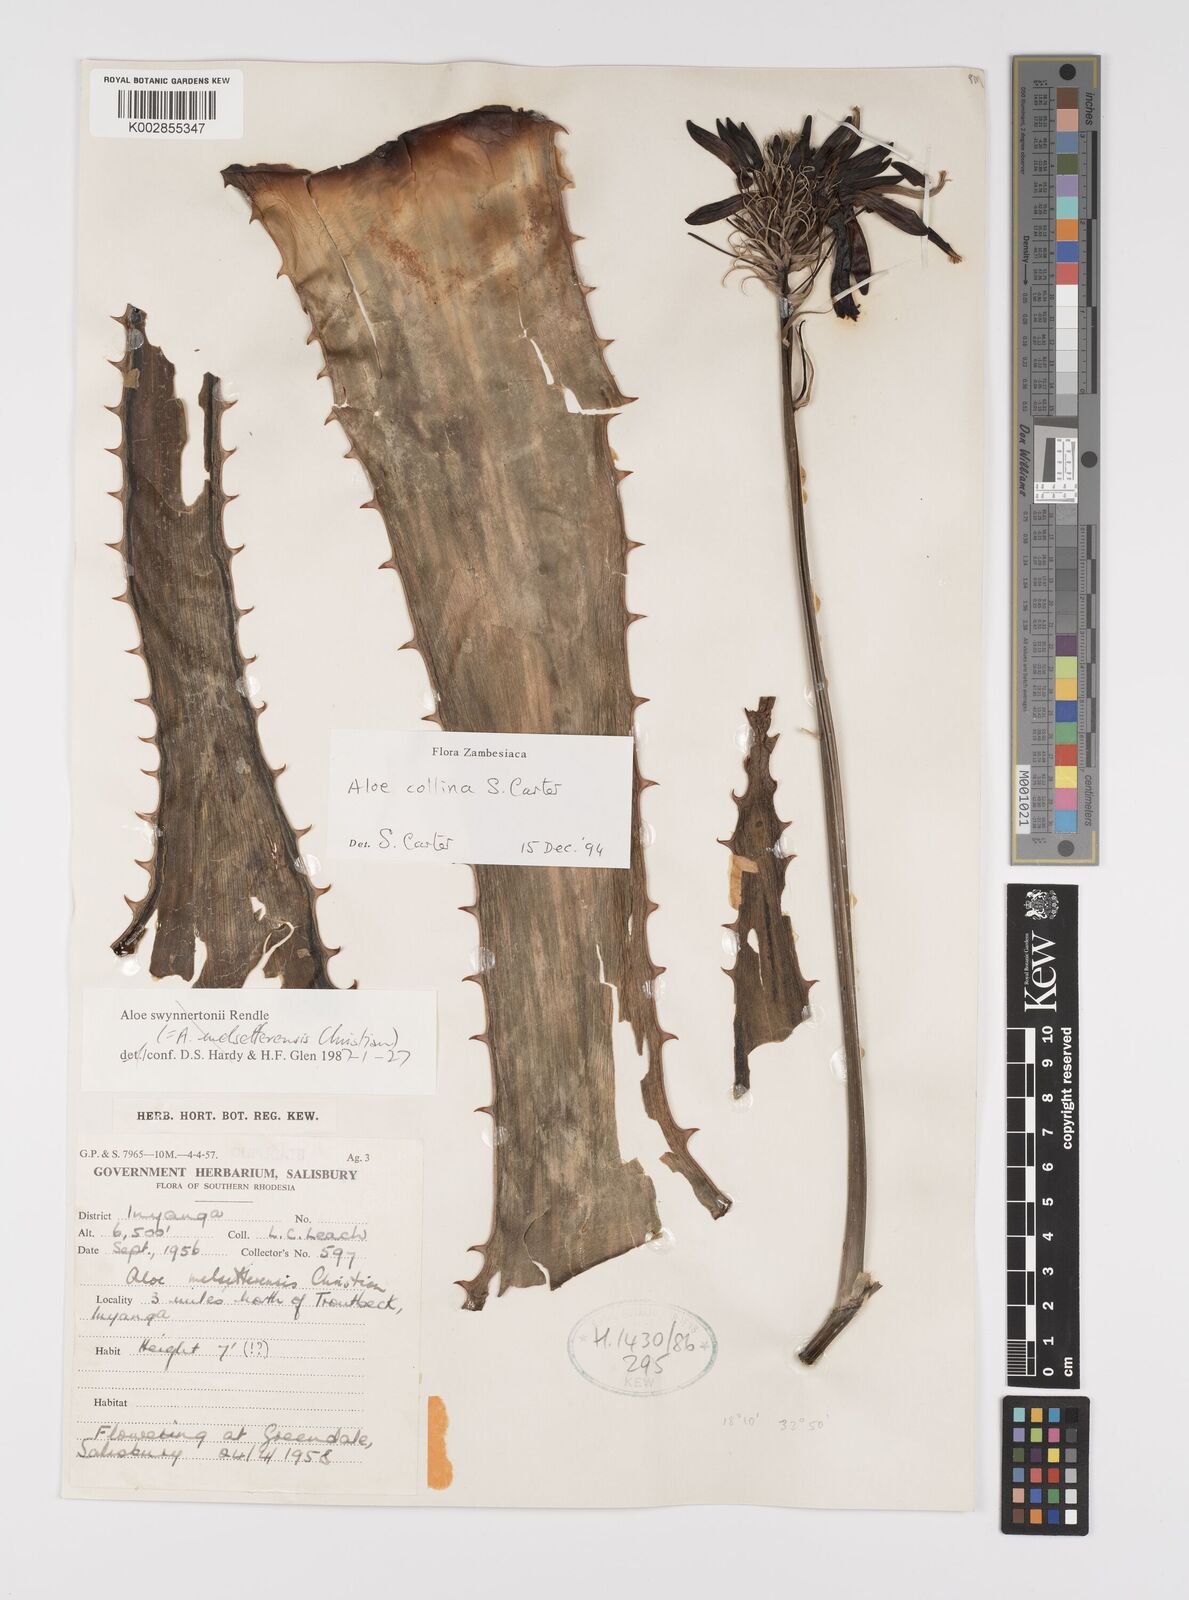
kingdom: Plantae
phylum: Tracheophyta
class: Liliopsida
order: Asparagales
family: Asphodelaceae
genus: Aloe
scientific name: Aloe collina
